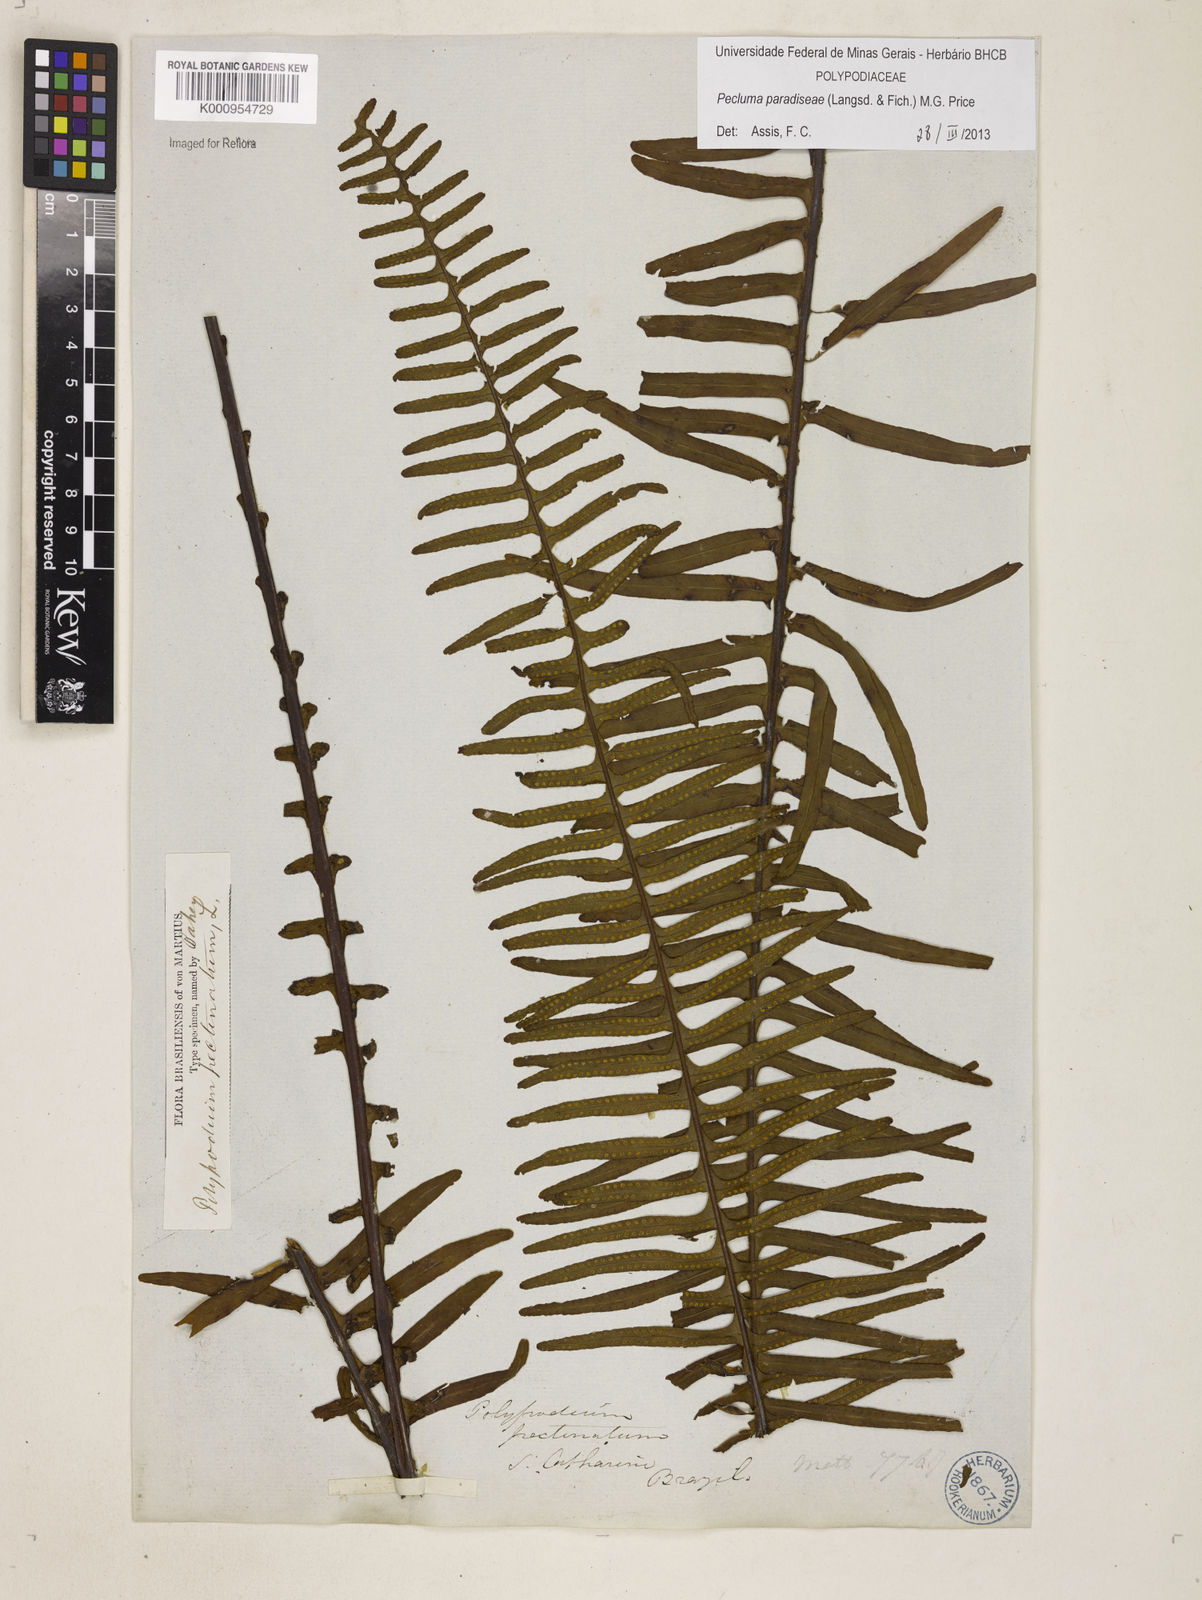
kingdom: Plantae
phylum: Tracheophyta
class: Polypodiopsida
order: Polypodiales
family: Polypodiaceae
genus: Pecluma
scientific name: Pecluma paradiseae
